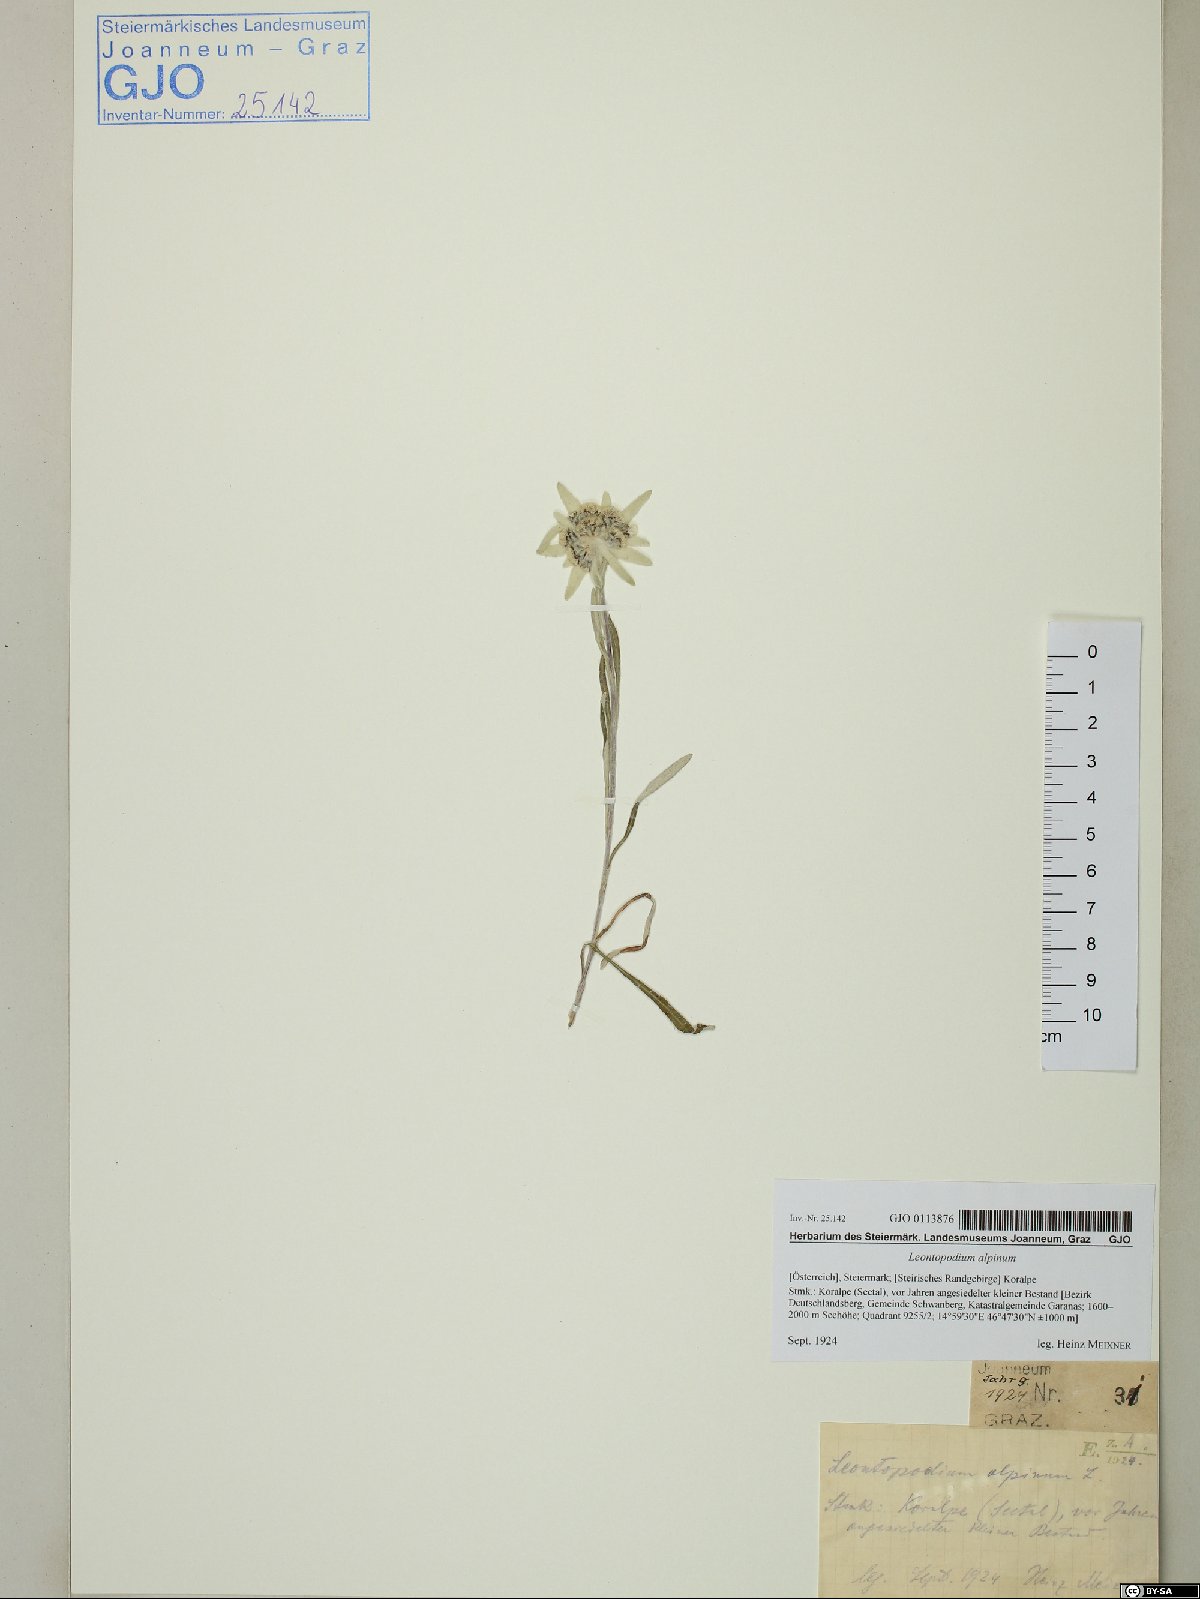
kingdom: Plantae
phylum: Tracheophyta
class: Magnoliopsida
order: Asterales
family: Asteraceae
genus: Leontopodium
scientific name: Leontopodium nivale
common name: Edelweiss
